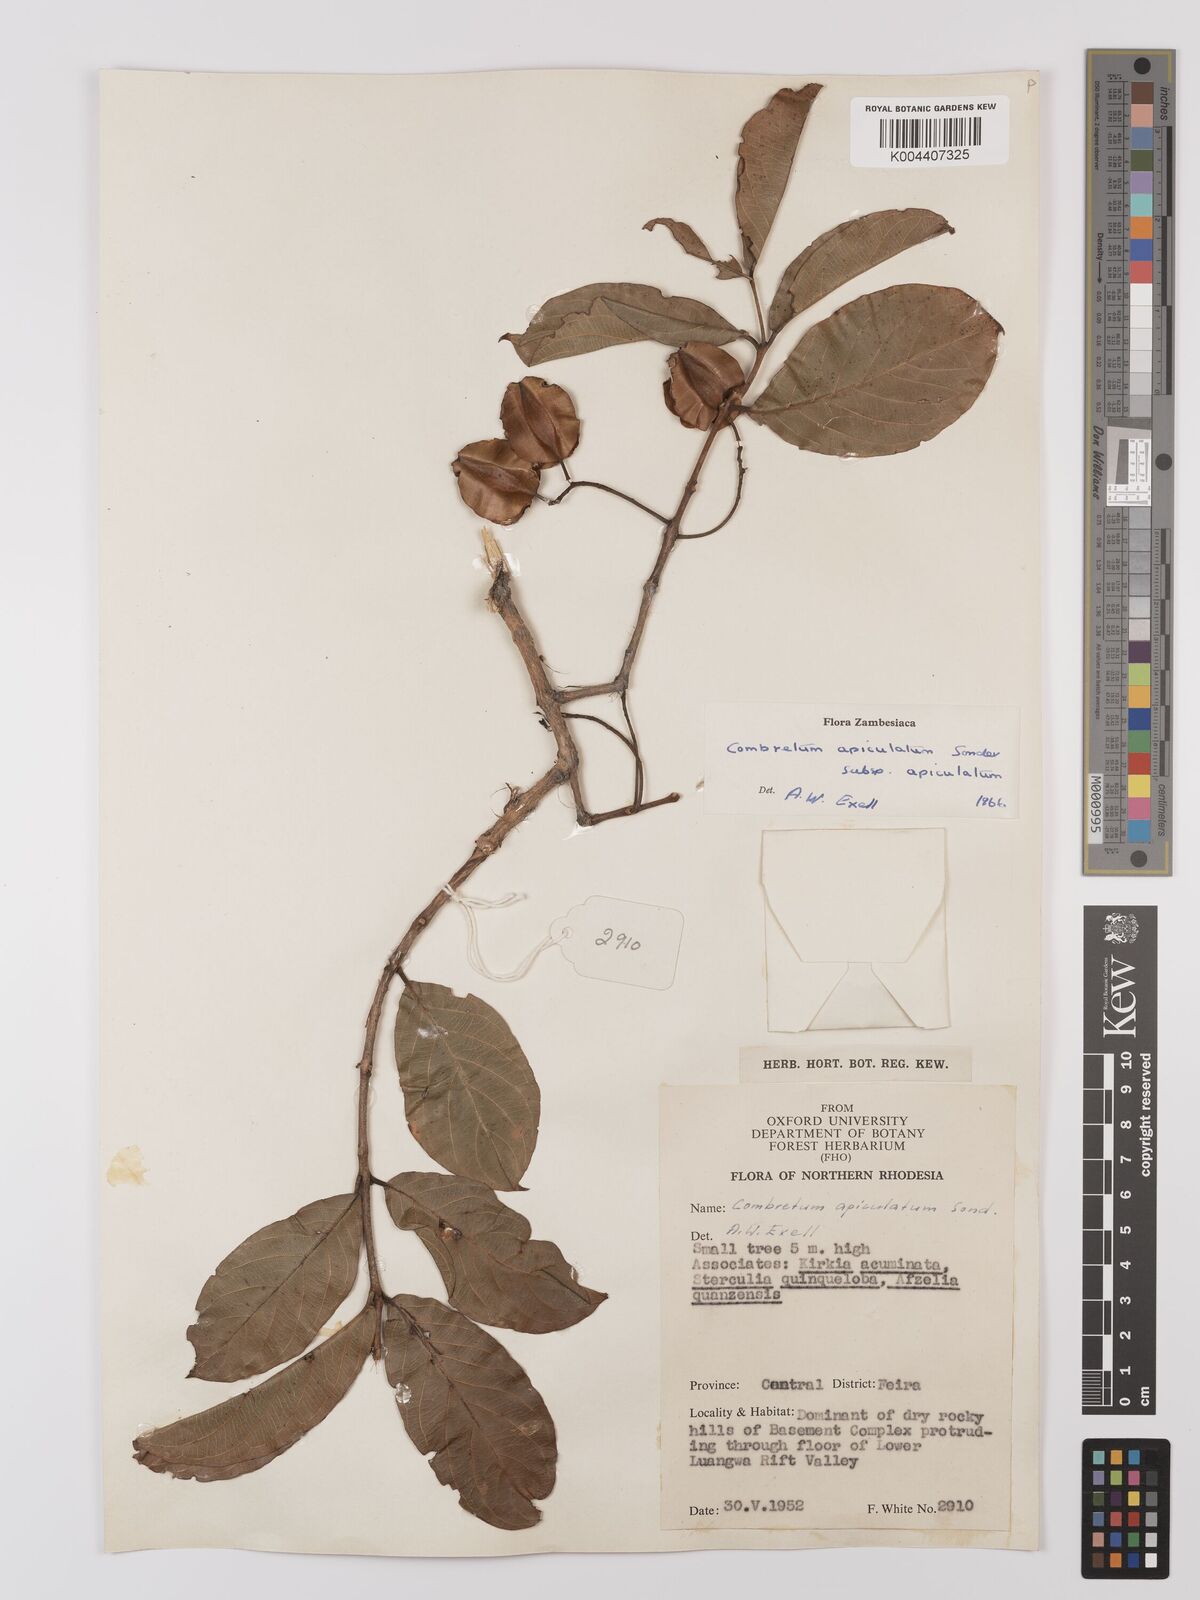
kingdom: Plantae
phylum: Tracheophyta
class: Magnoliopsida
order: Myrtales
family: Combretaceae
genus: Combretum
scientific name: Combretum apiculatum
